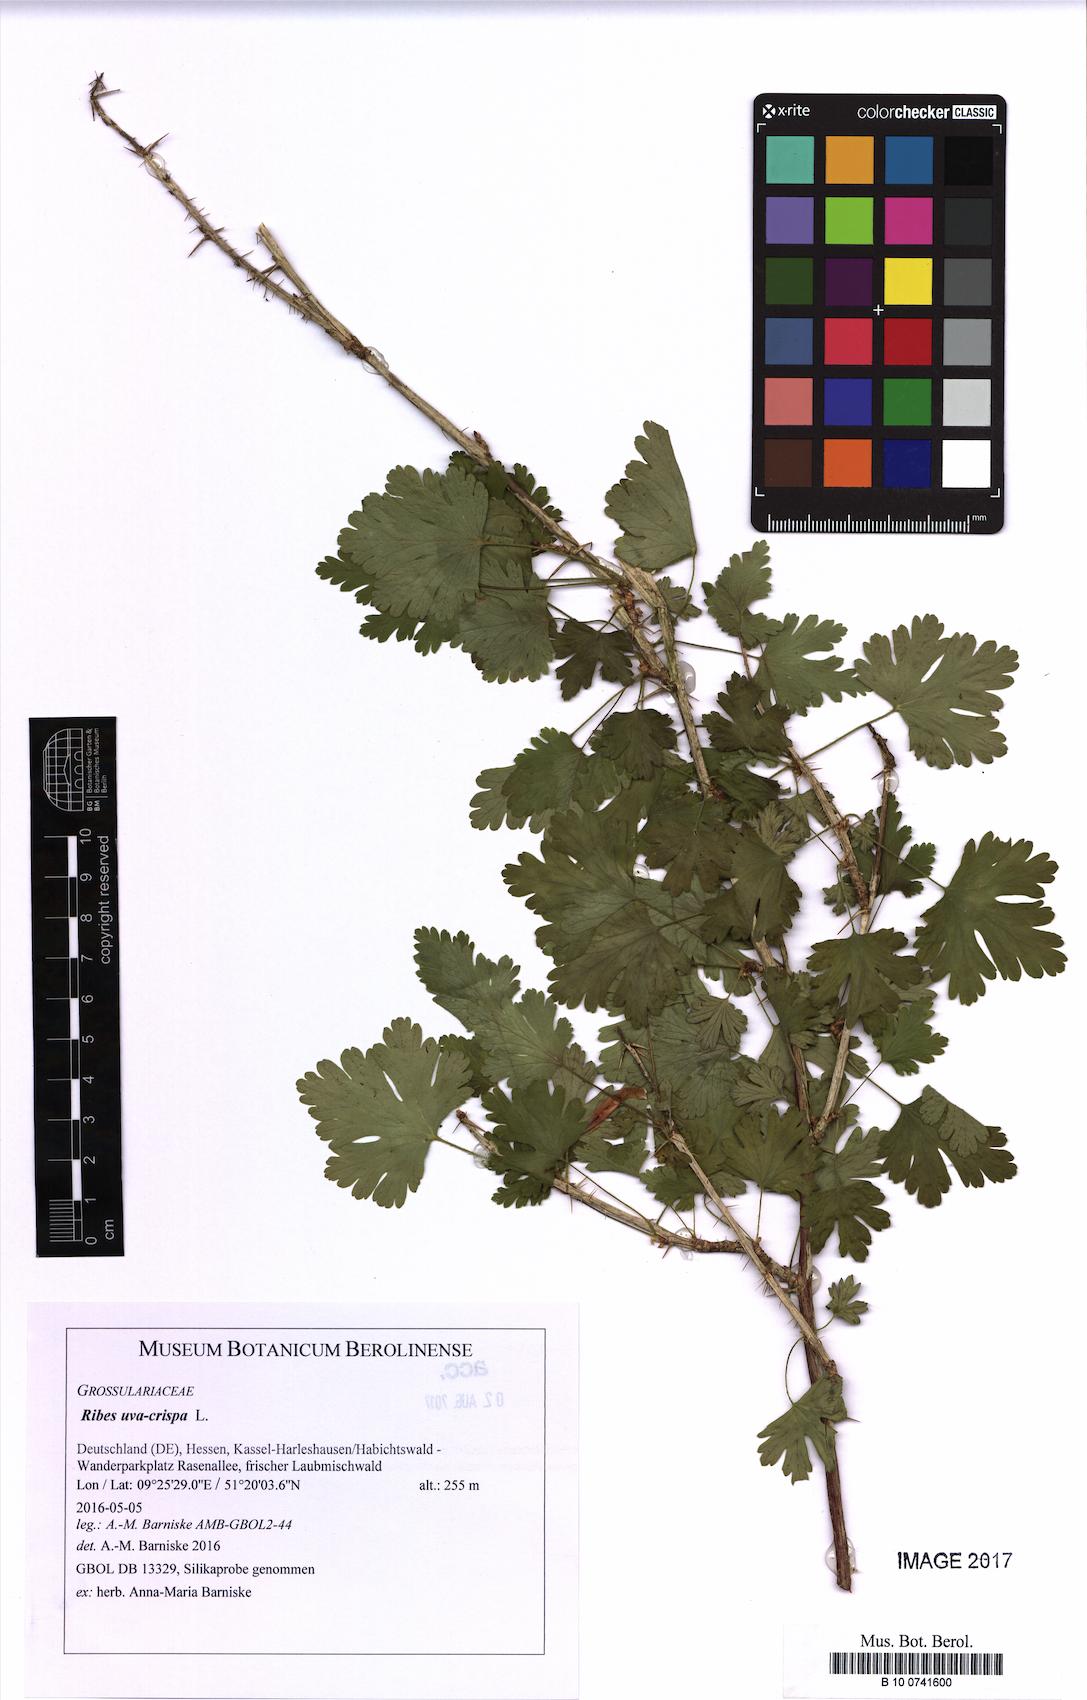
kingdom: Plantae
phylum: Tracheophyta
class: Magnoliopsida
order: Saxifragales
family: Grossulariaceae
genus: Ribes
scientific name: Ribes uva-crispa
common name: Gooseberry
